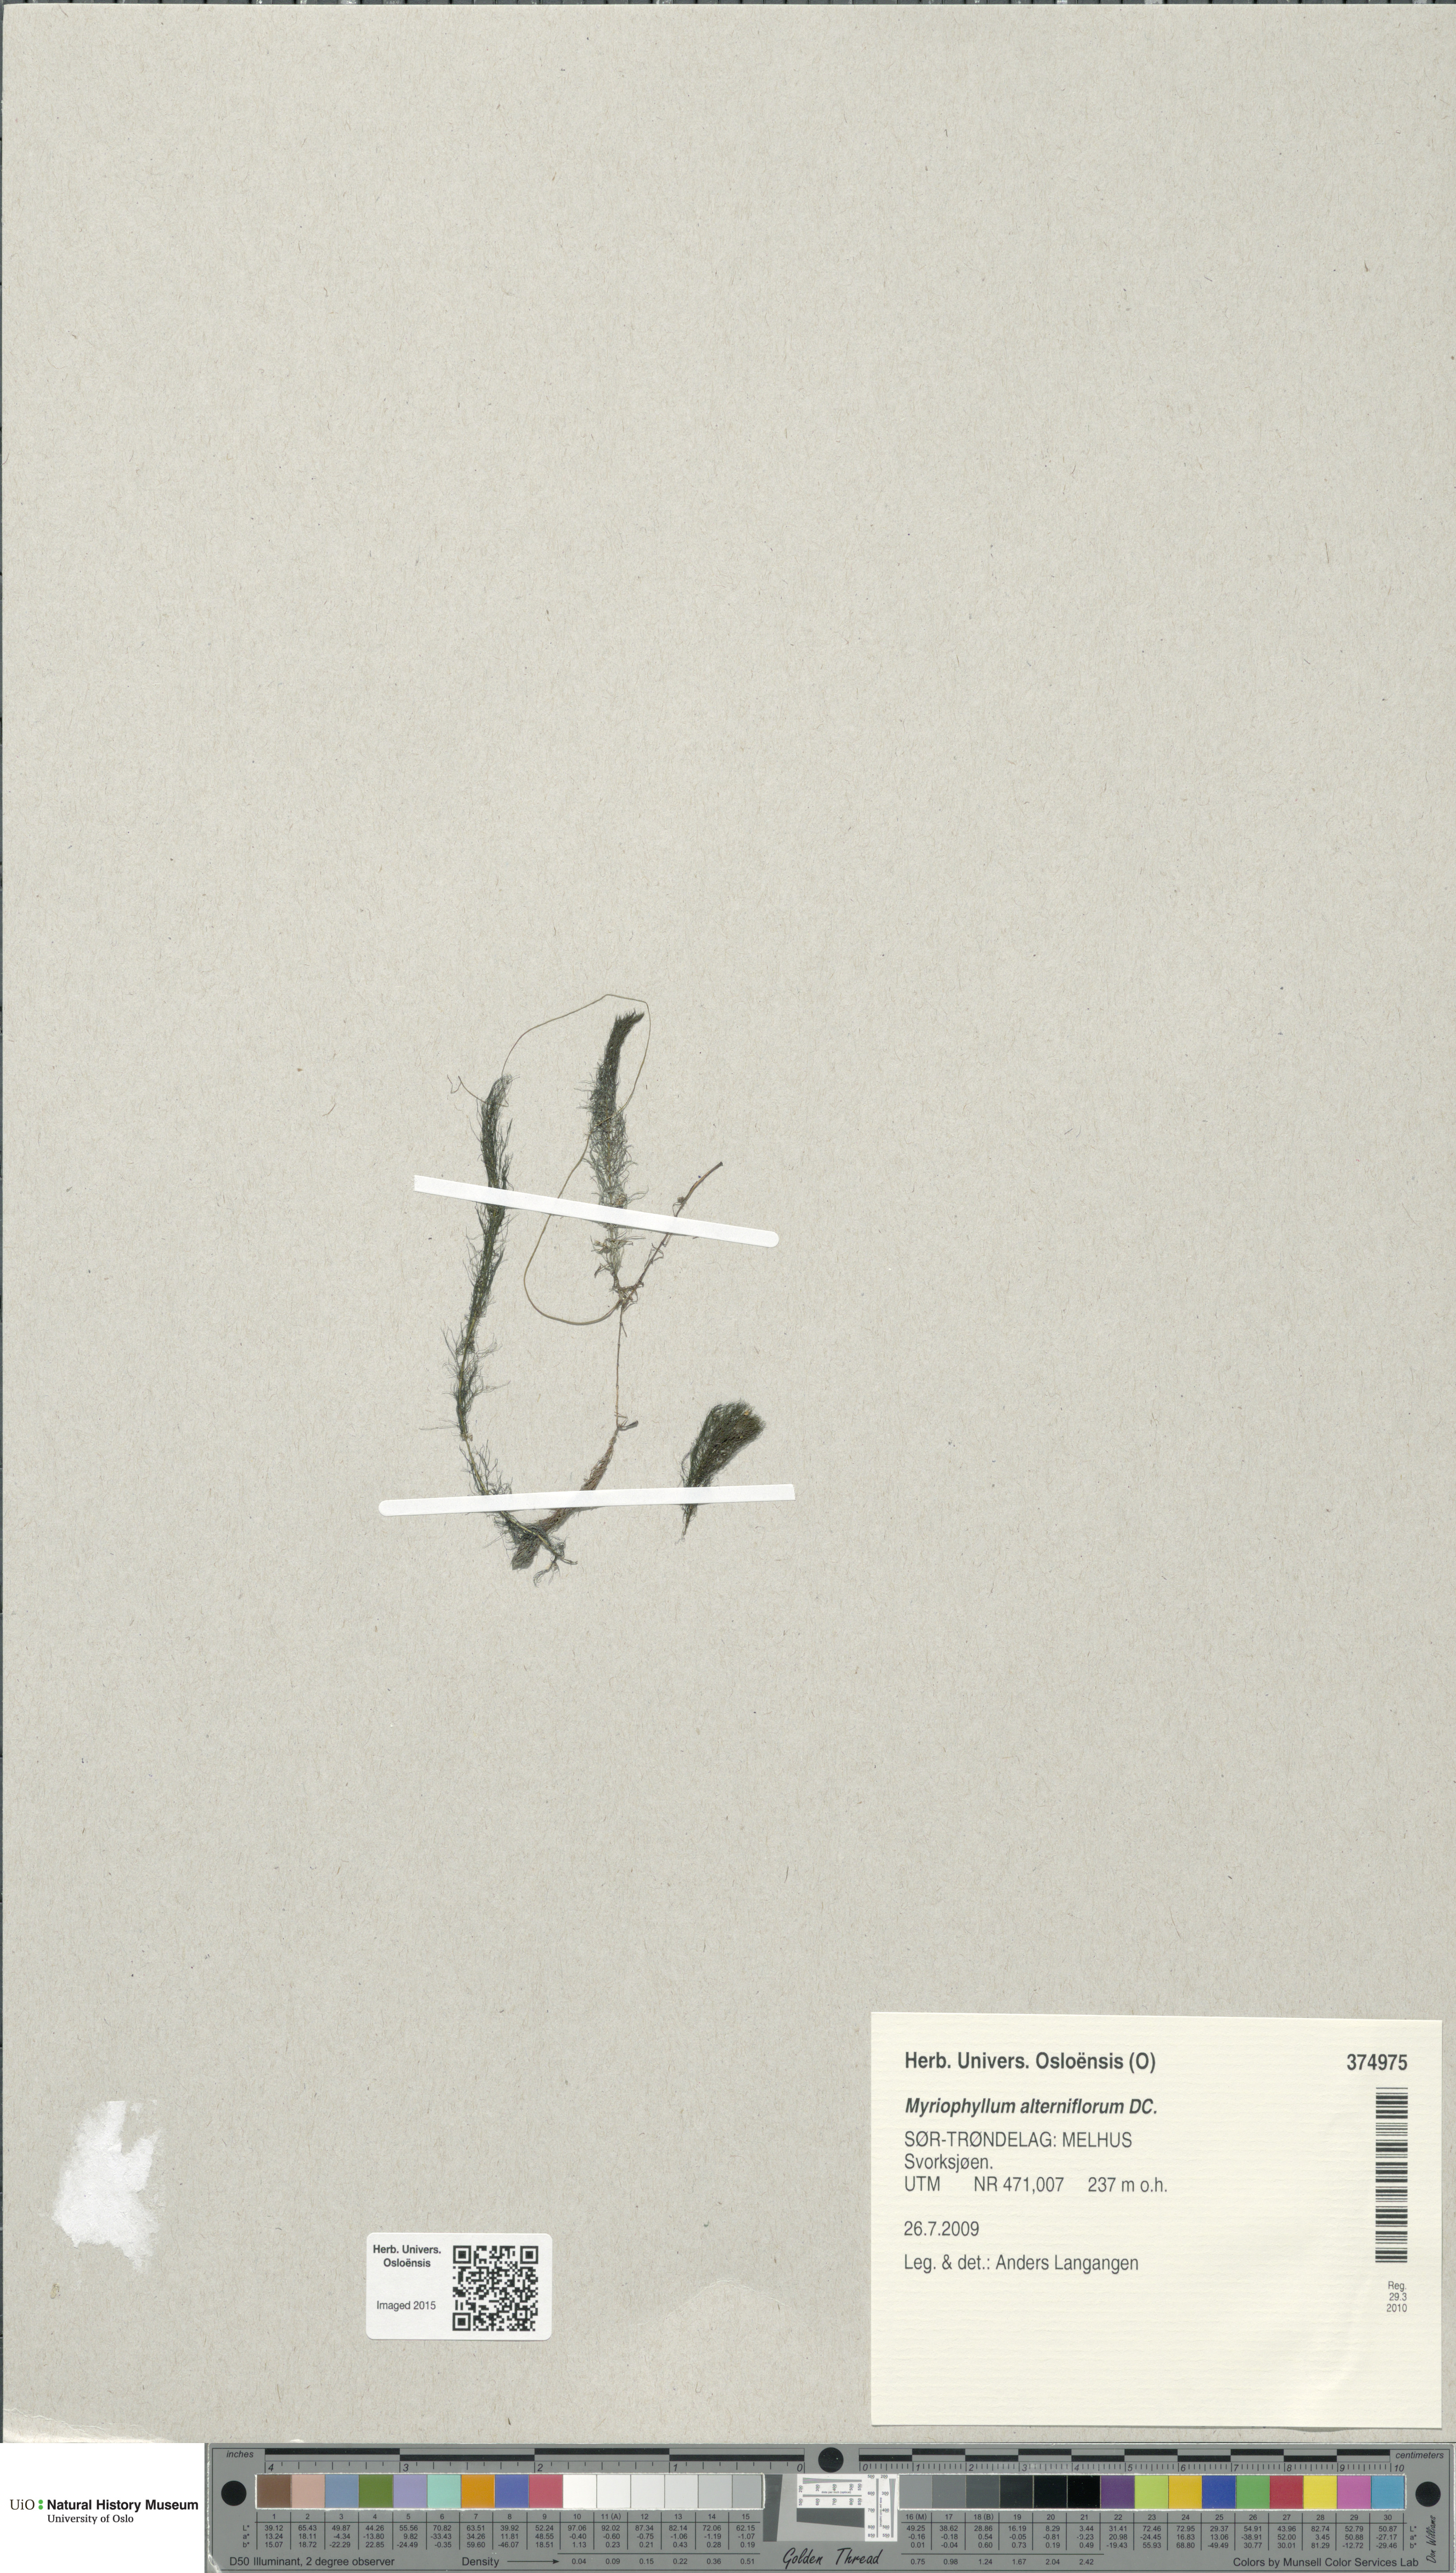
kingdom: Plantae
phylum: Tracheophyta
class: Magnoliopsida
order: Saxifragales
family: Haloragaceae
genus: Myriophyllum
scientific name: Myriophyllum alterniflorum
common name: Alternate water-milfoil
